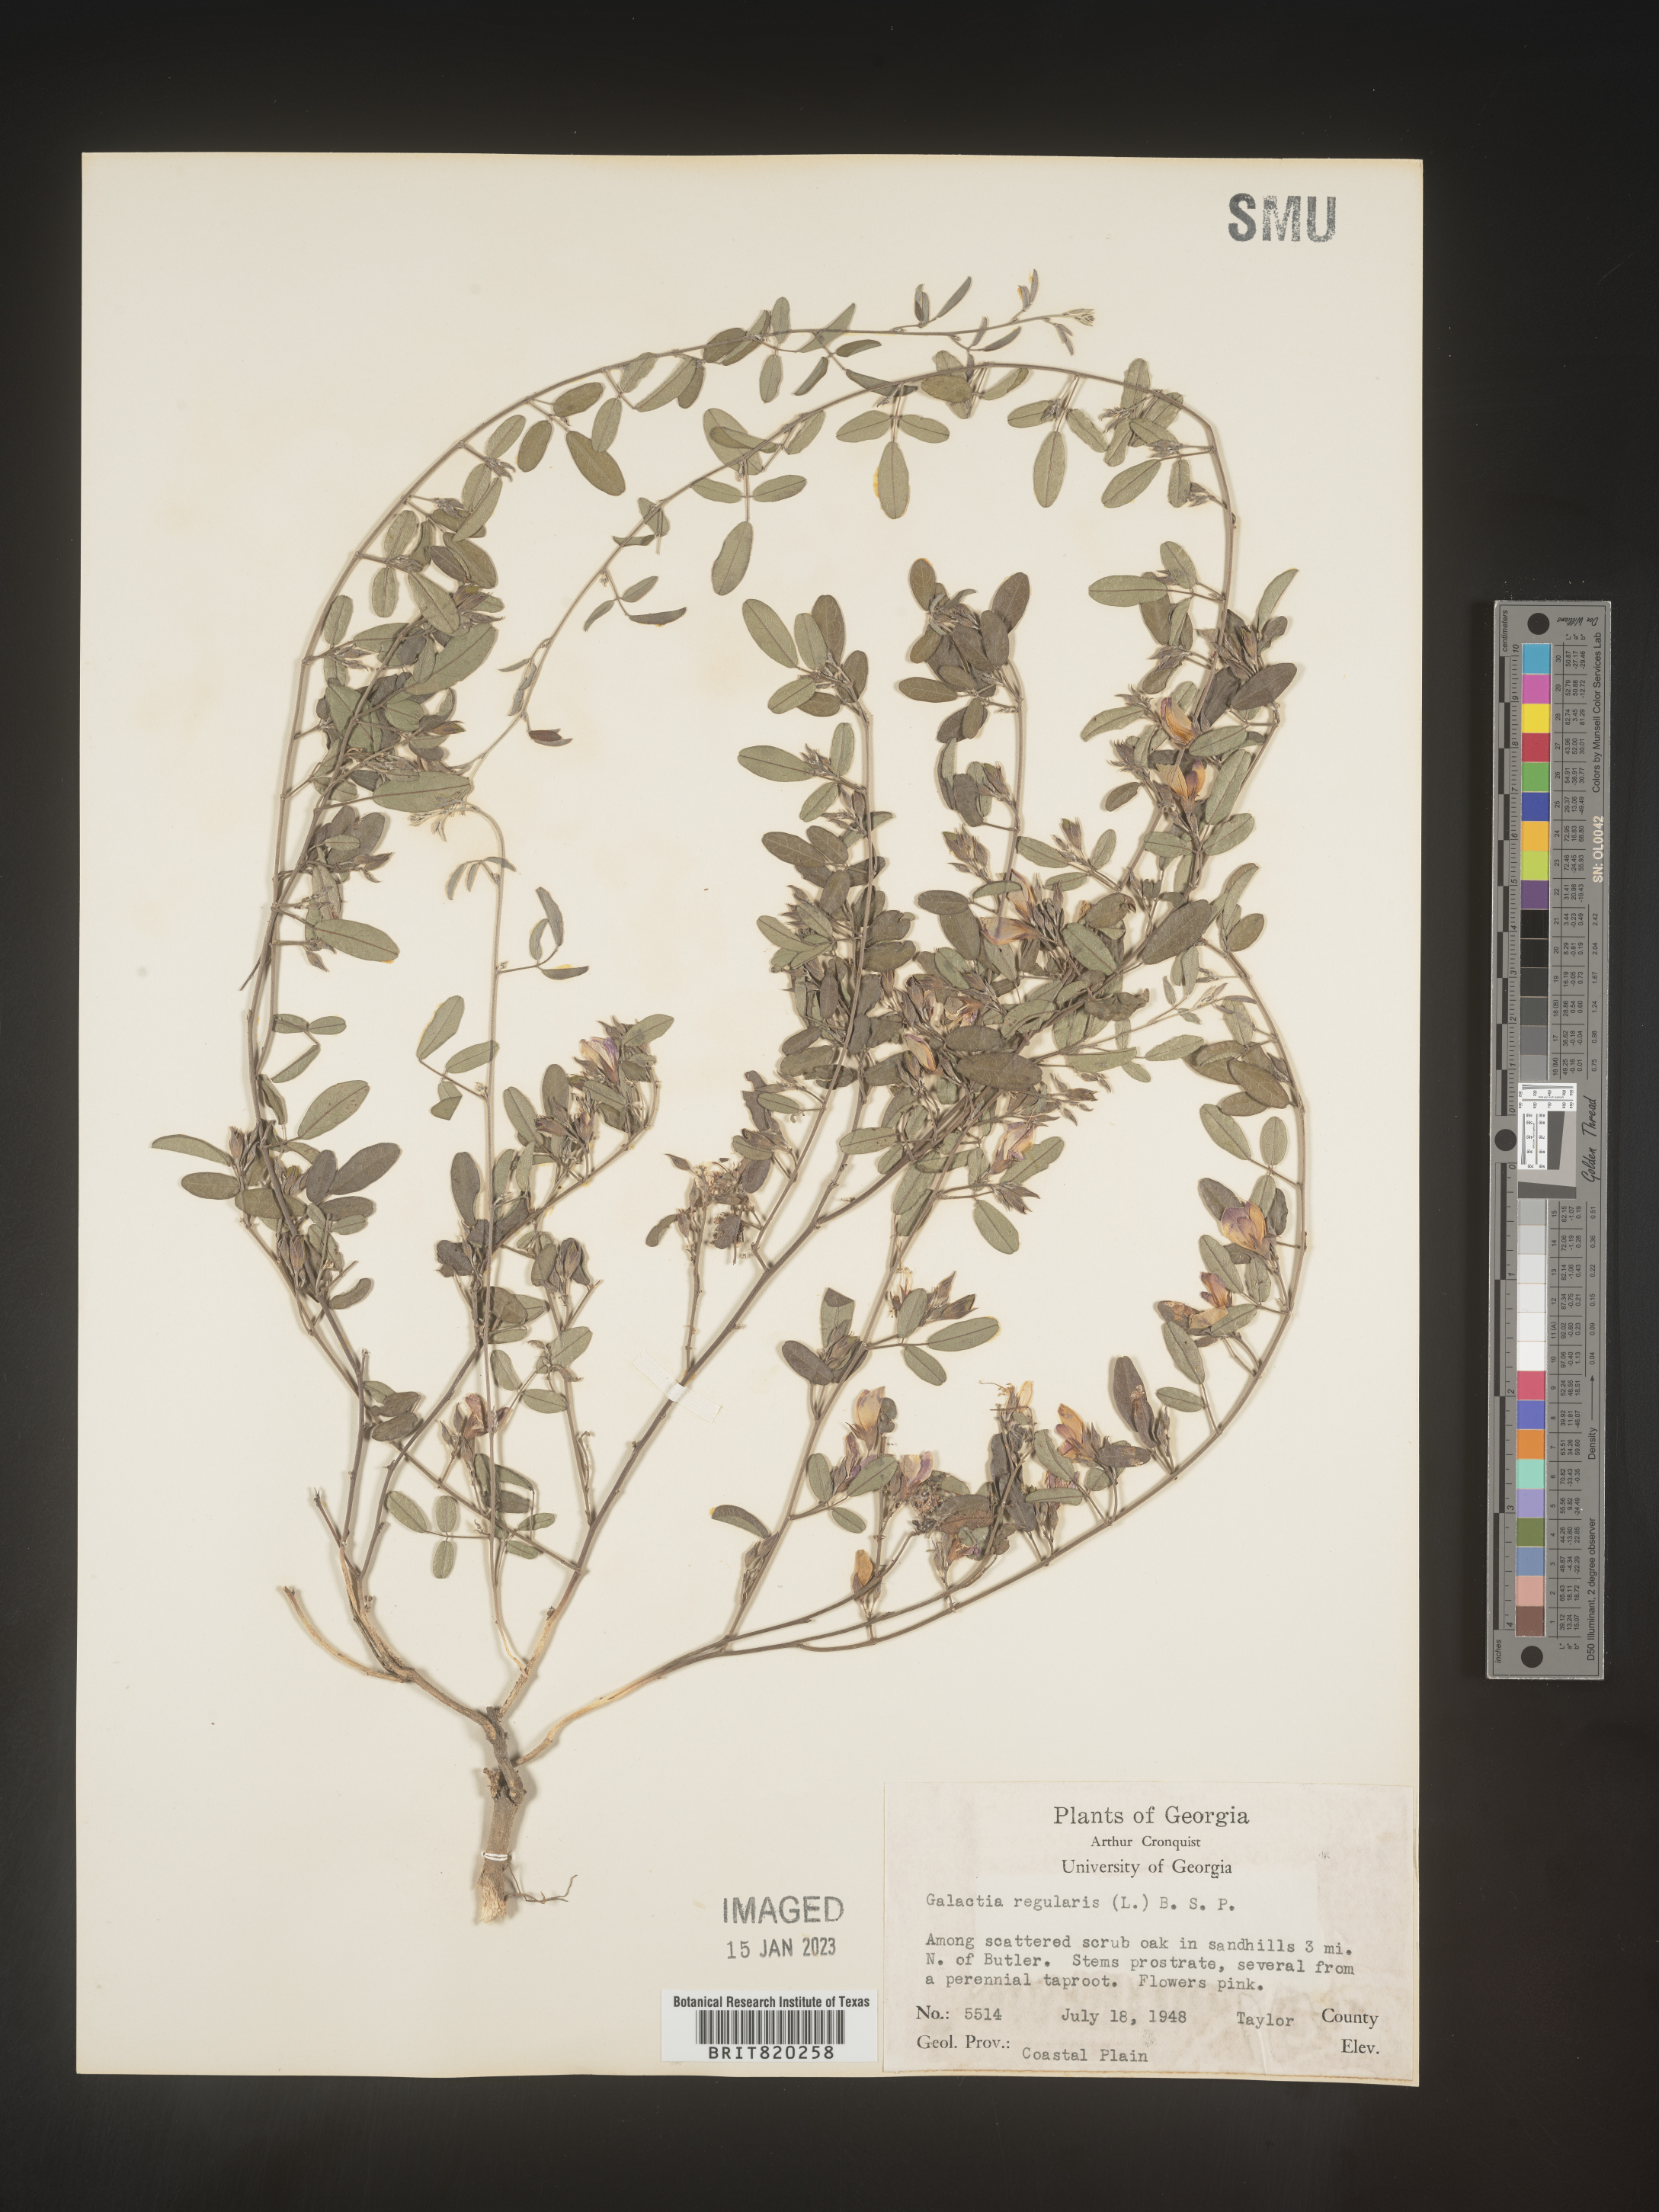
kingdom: Plantae
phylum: Tracheophyta
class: Magnoliopsida
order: Fabales
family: Fabaceae
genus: Galactia
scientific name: Galactia microphylla
